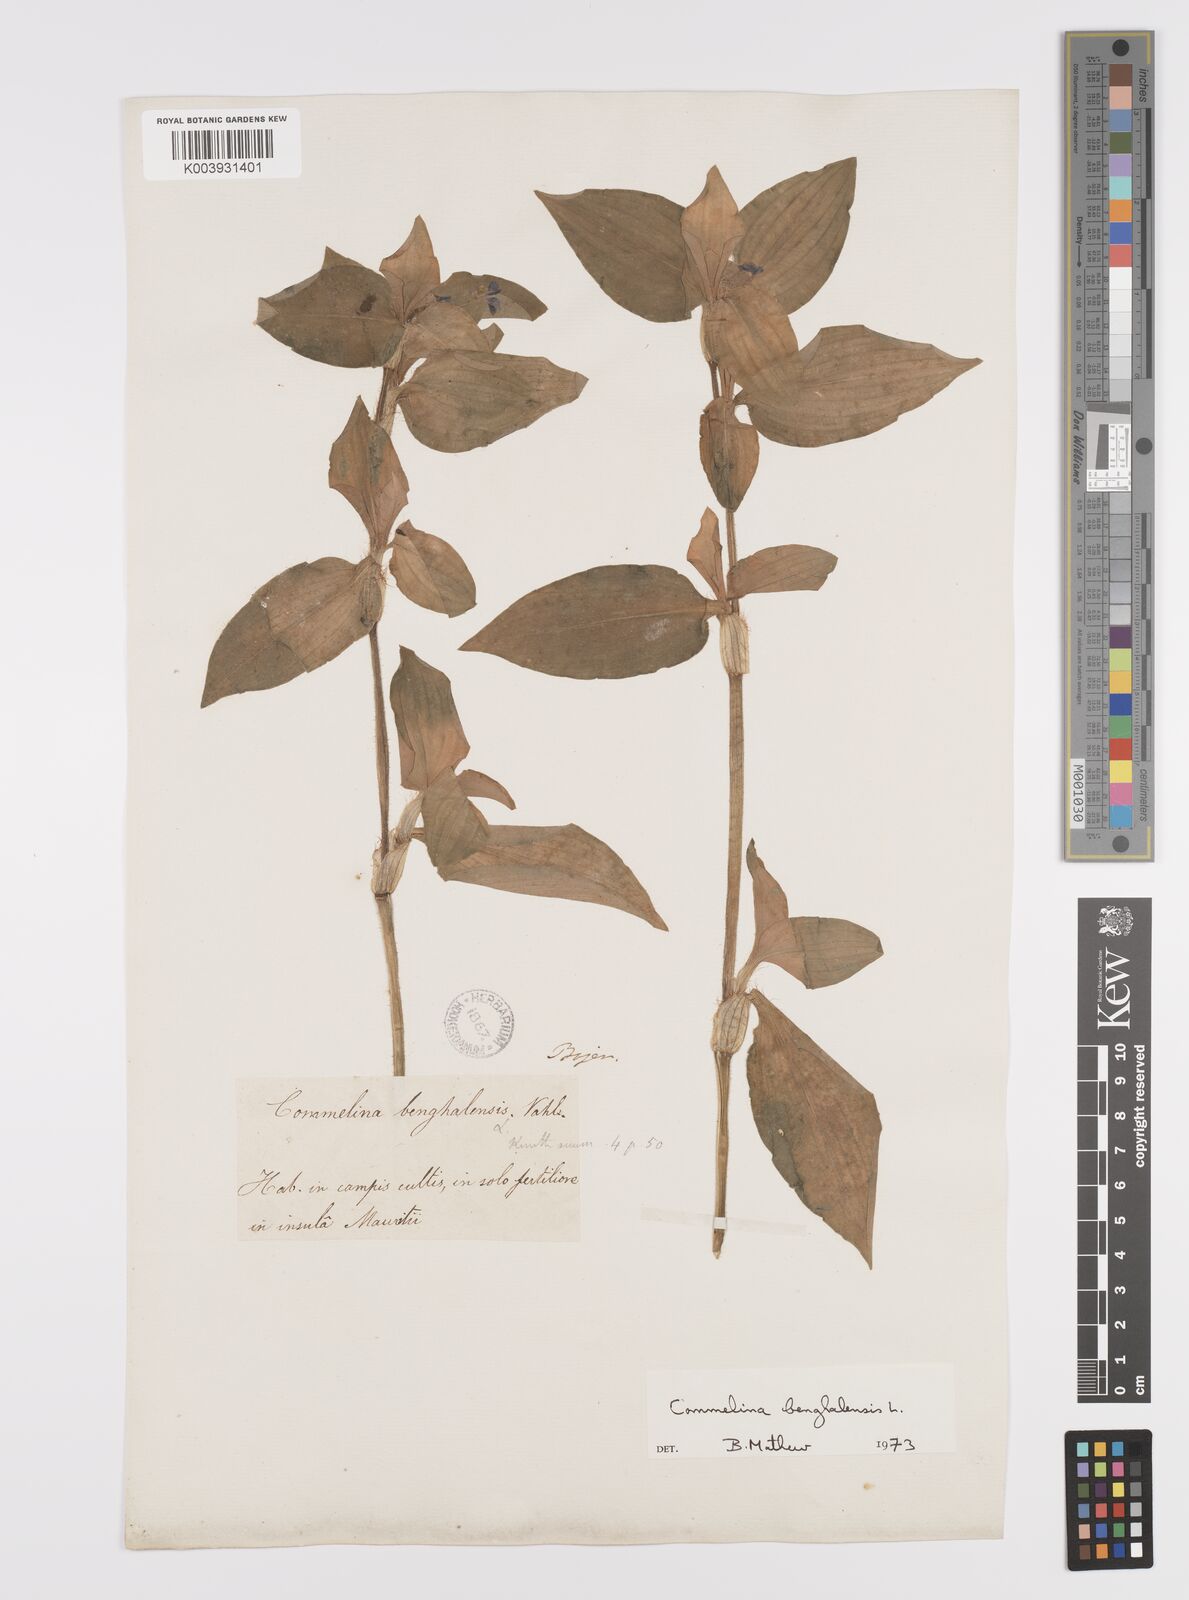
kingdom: Plantae
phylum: Tracheophyta
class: Liliopsida
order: Commelinales
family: Commelinaceae
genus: Commelina
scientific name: Commelina benghalensis
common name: Jio
